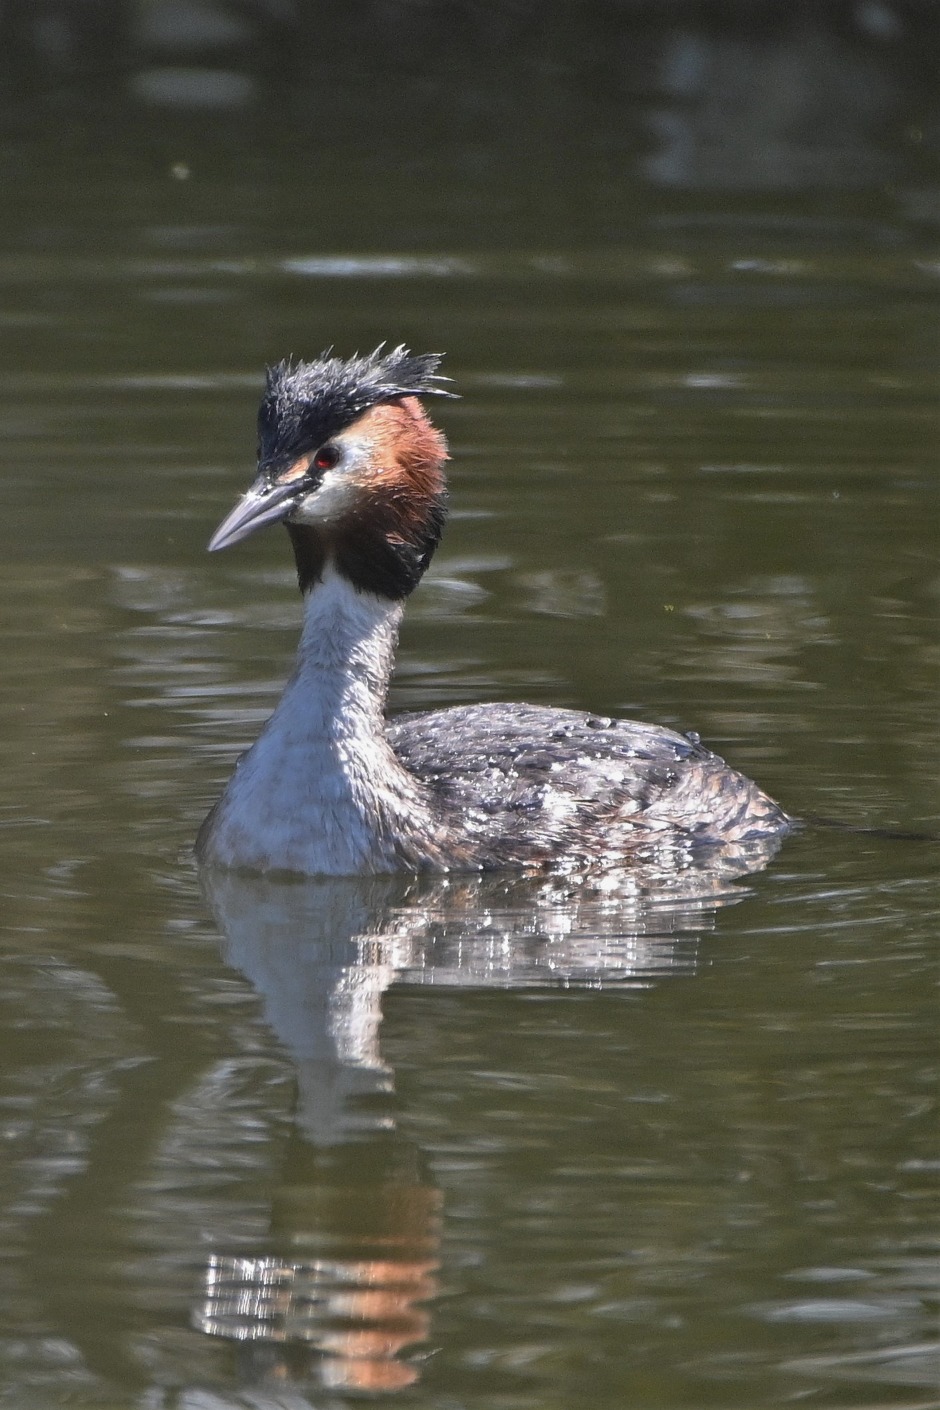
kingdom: Animalia
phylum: Chordata
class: Aves
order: Podicipediformes
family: Podicipedidae
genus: Podiceps
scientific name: Podiceps cristatus
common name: Toppet lappedykker
